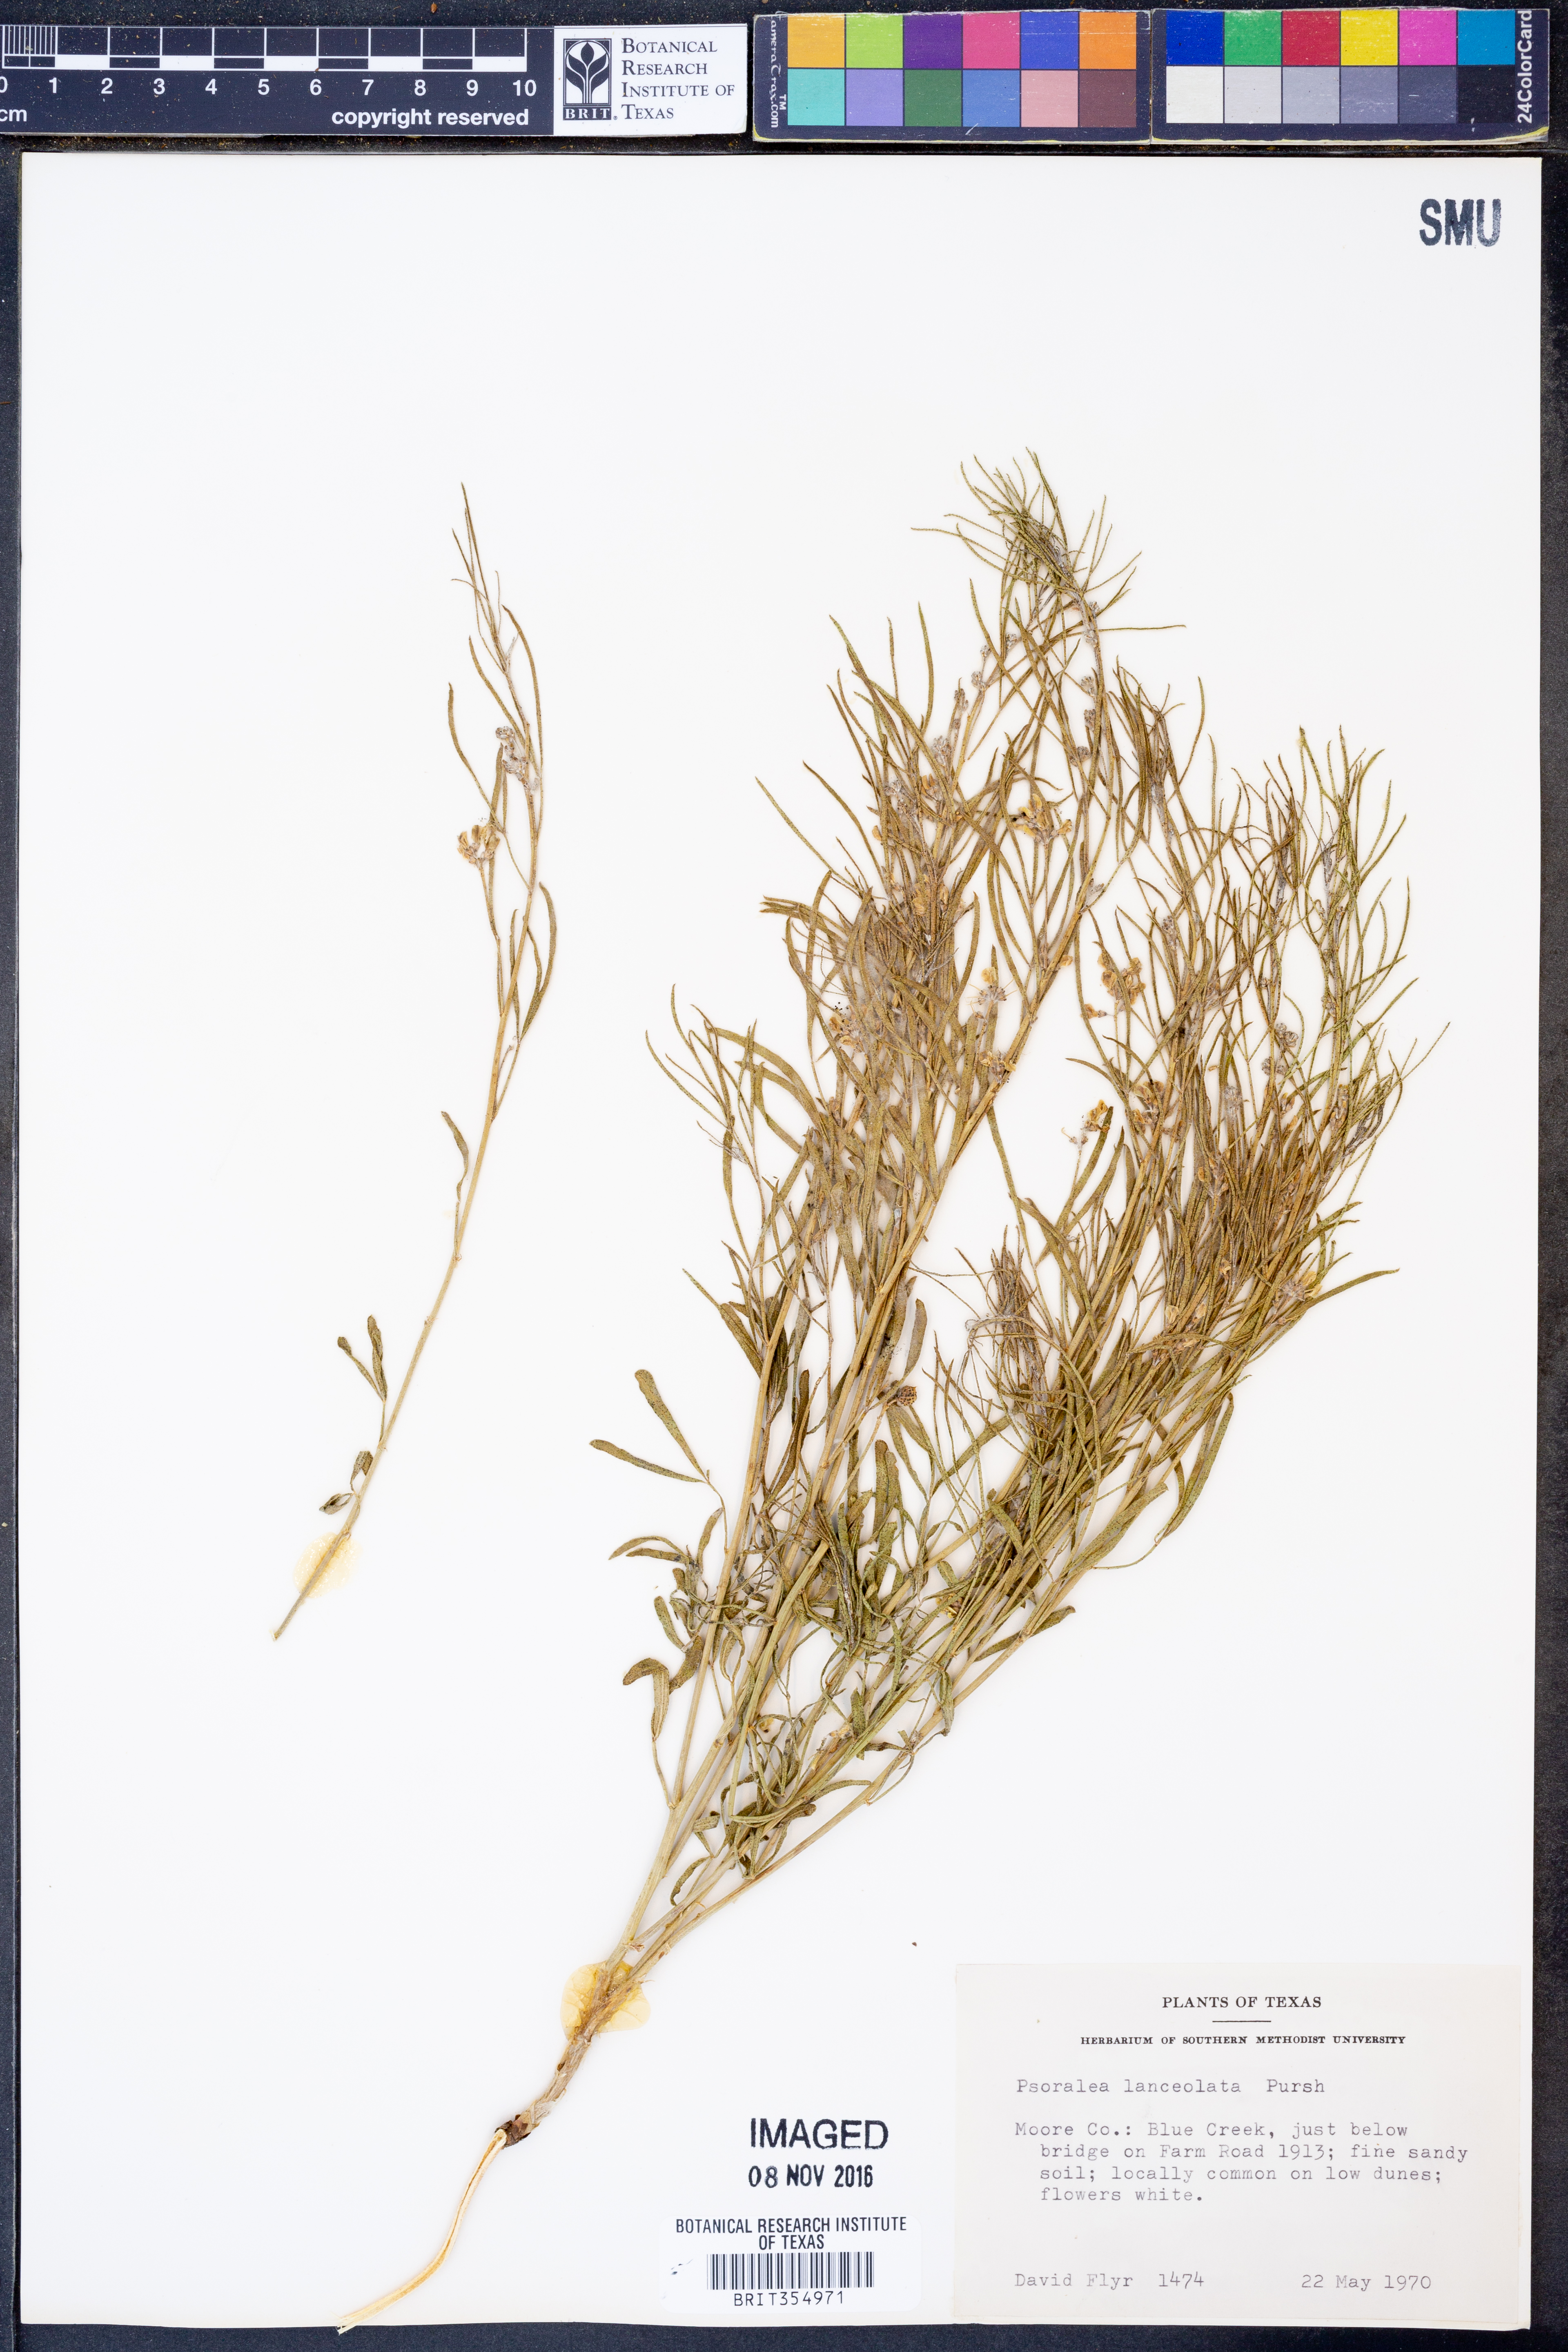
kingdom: Plantae
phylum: Tracheophyta
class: Magnoliopsida
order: Fabales
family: Fabaceae
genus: Ladeania
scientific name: Ladeania lanceolata
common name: Dune scurf-pea
